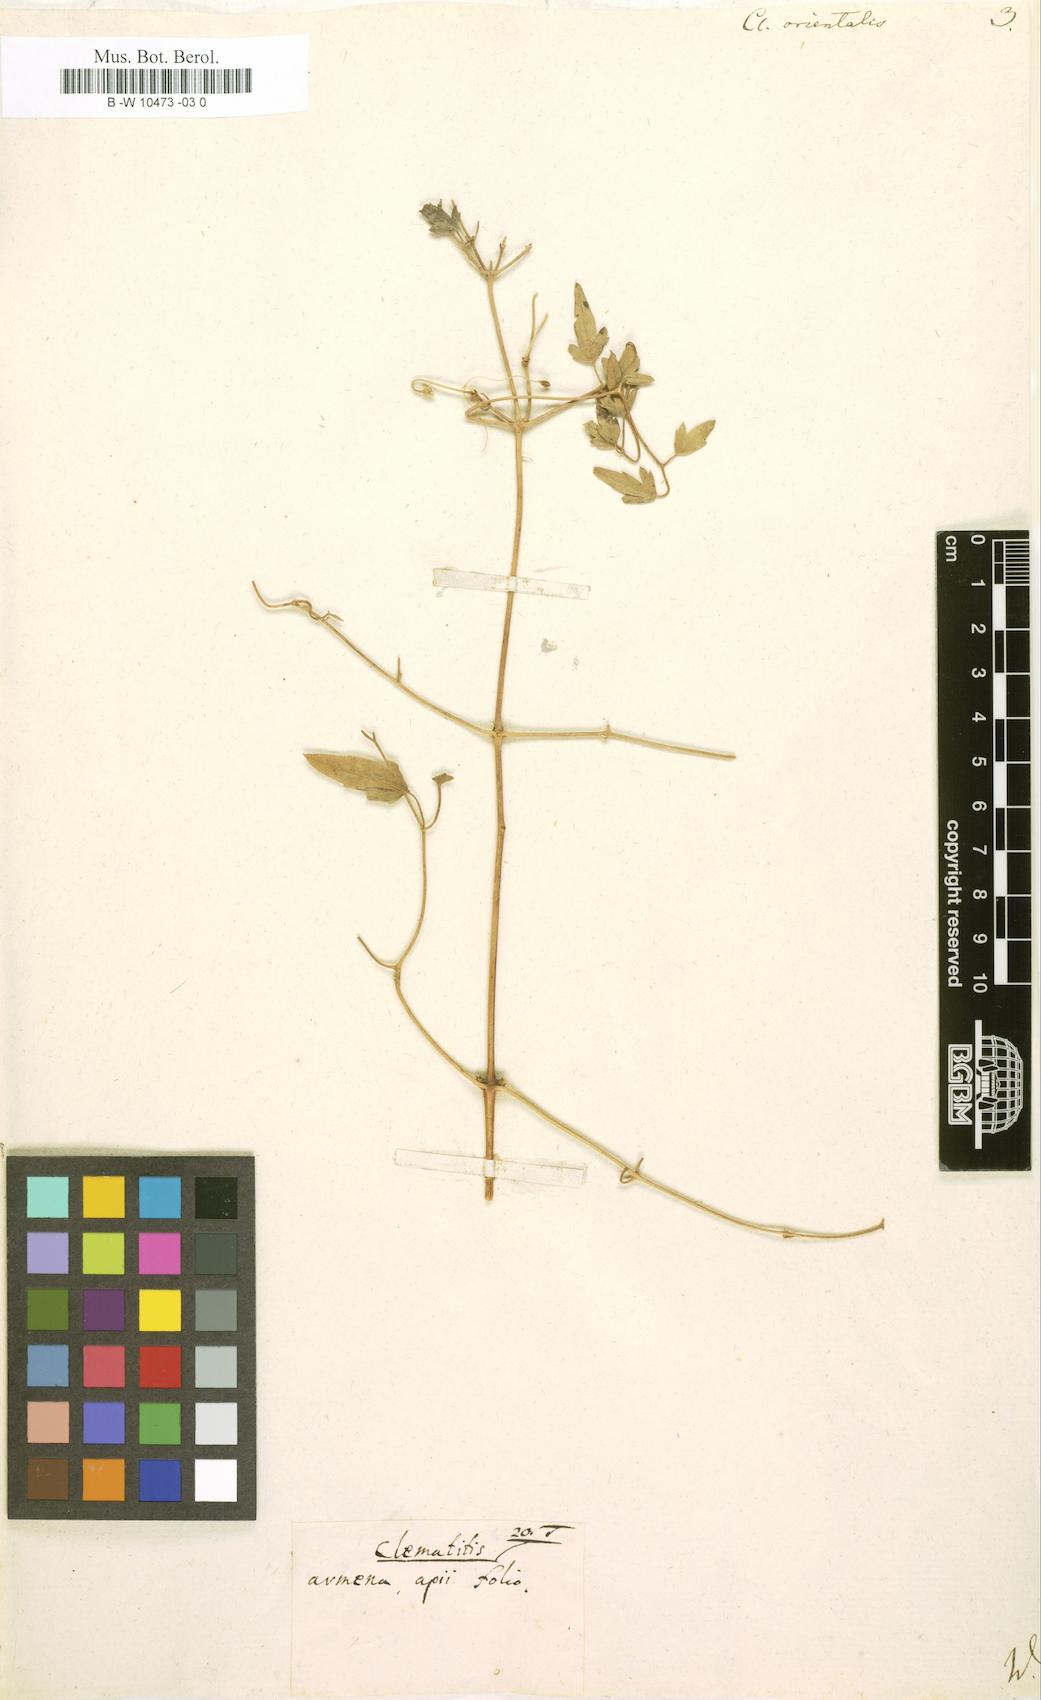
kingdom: Plantae
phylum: Tracheophyta
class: Magnoliopsida
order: Ranunculales
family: Ranunculaceae
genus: Clematis
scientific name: Clematis orientalis
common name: Oriental virgin's-bower
